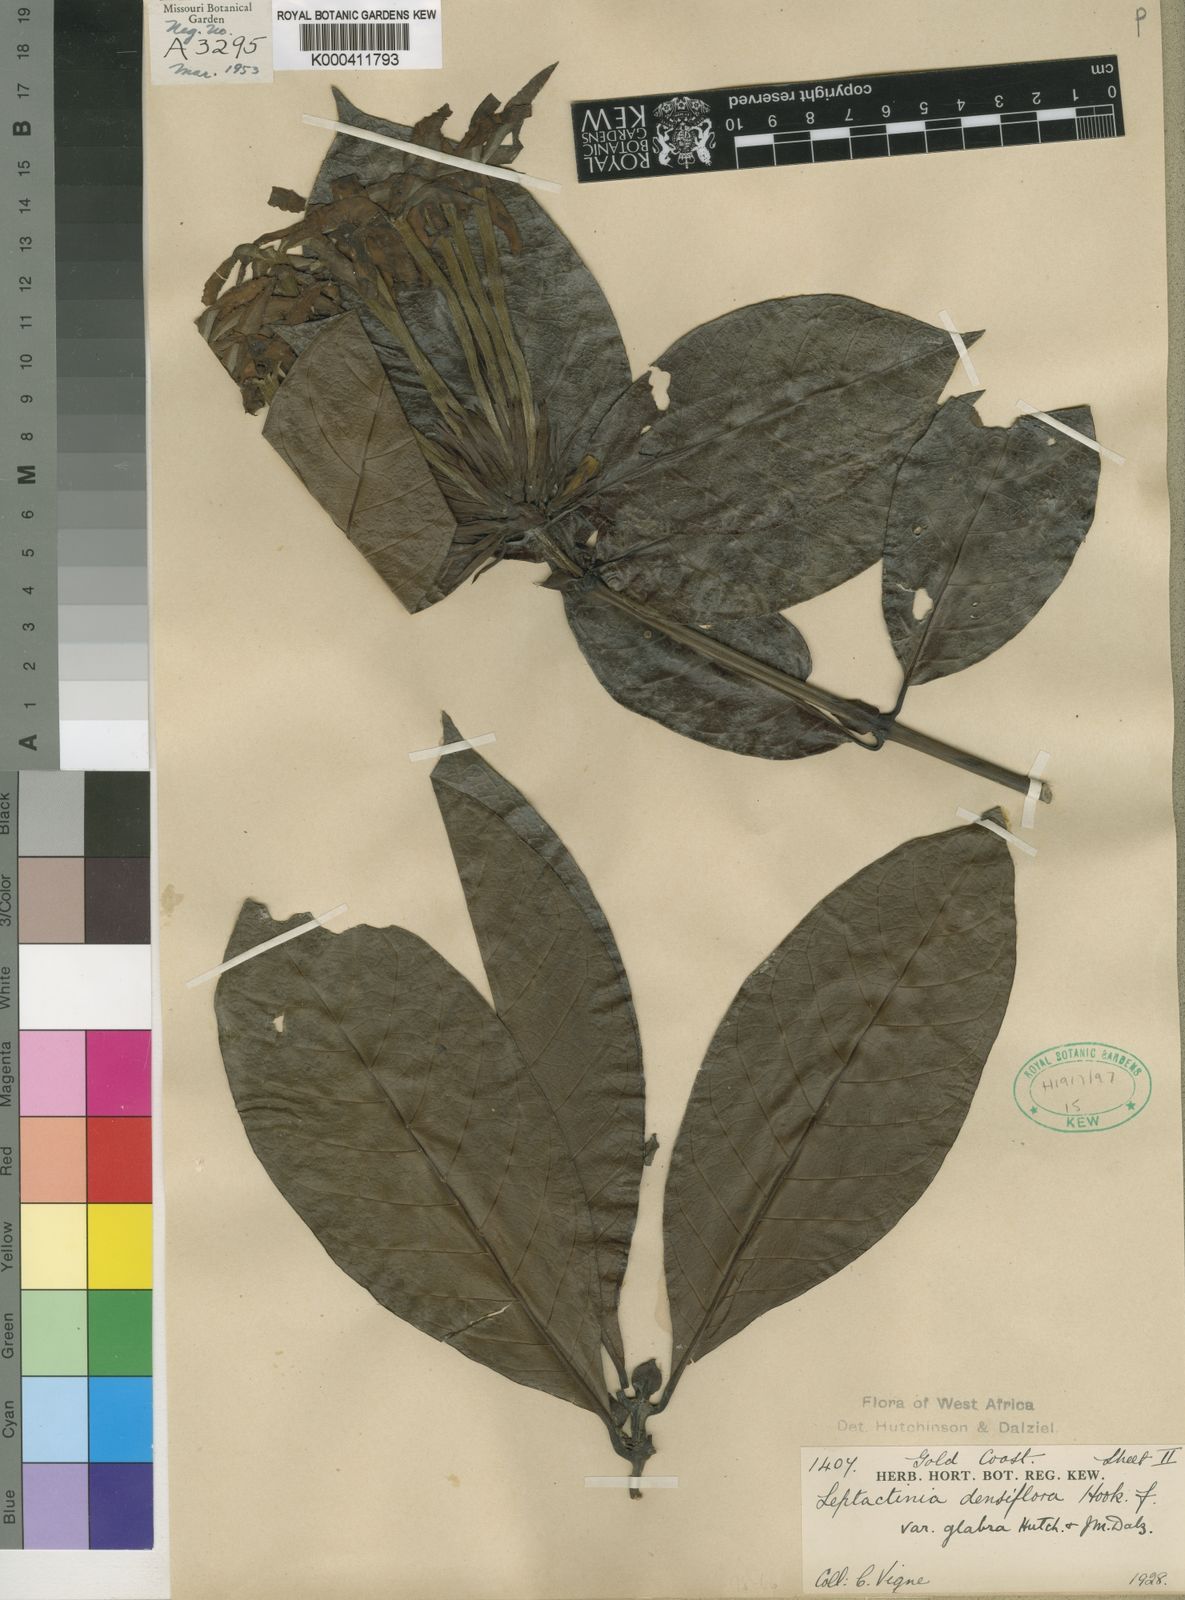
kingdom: Plantae
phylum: Tracheophyta
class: Magnoliopsida
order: Gentianales
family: Rubiaceae
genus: Leptactina
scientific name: Leptactina densiflora
